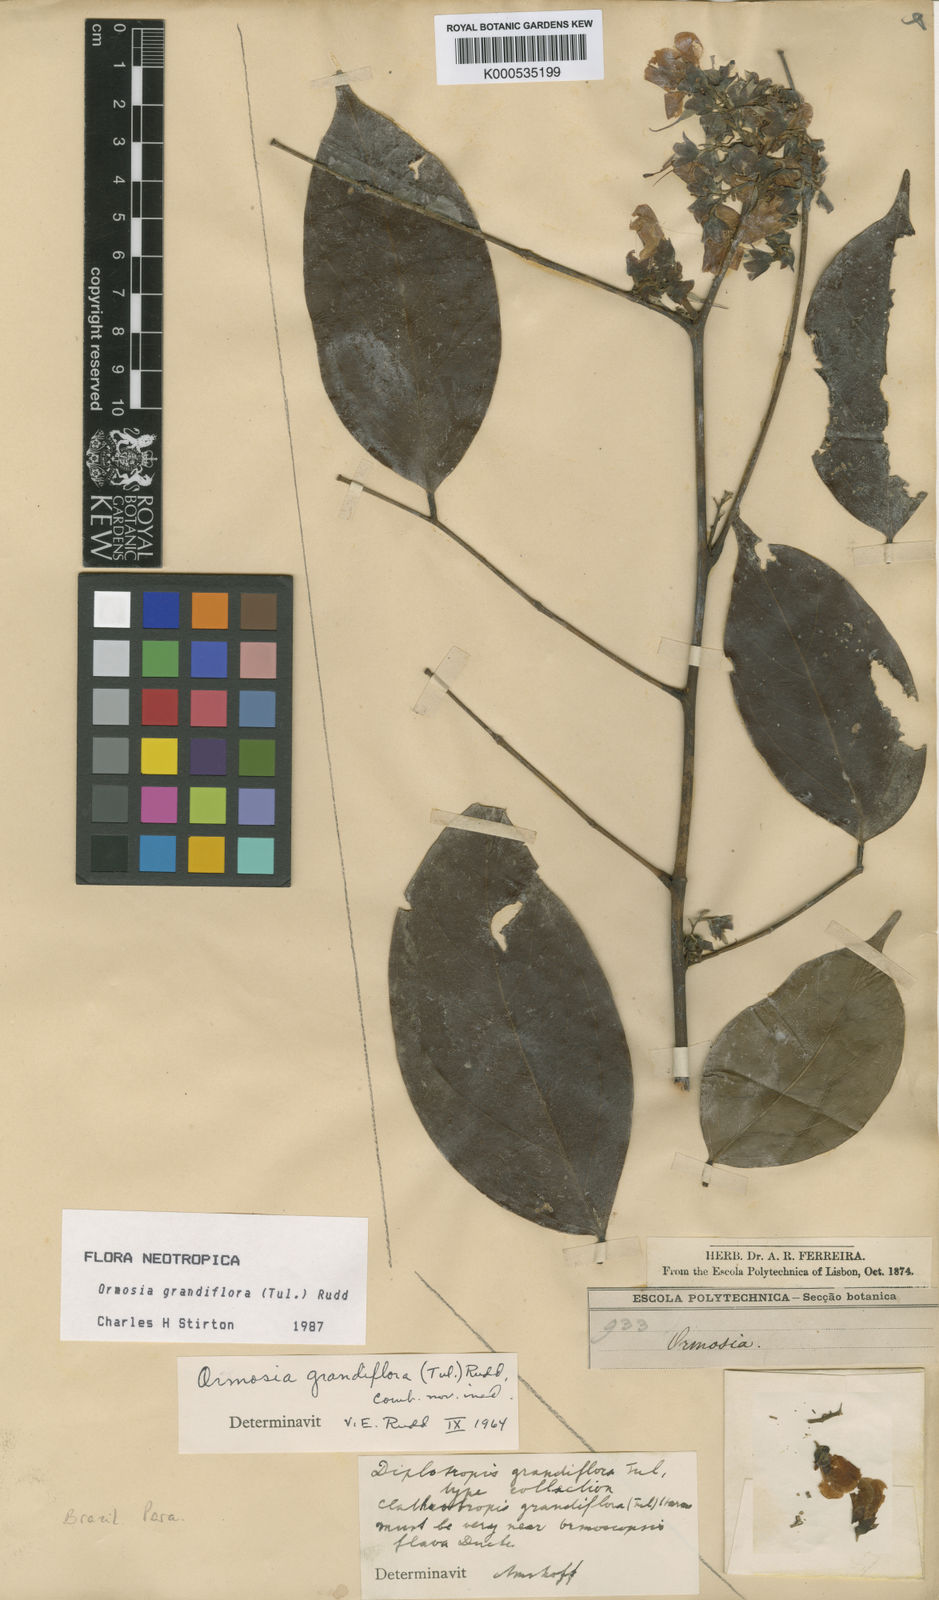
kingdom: Plantae
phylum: Tracheophyta
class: Magnoliopsida
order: Fabales
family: Fabaceae
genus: Ormosia
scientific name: Ormosia grandiflora
